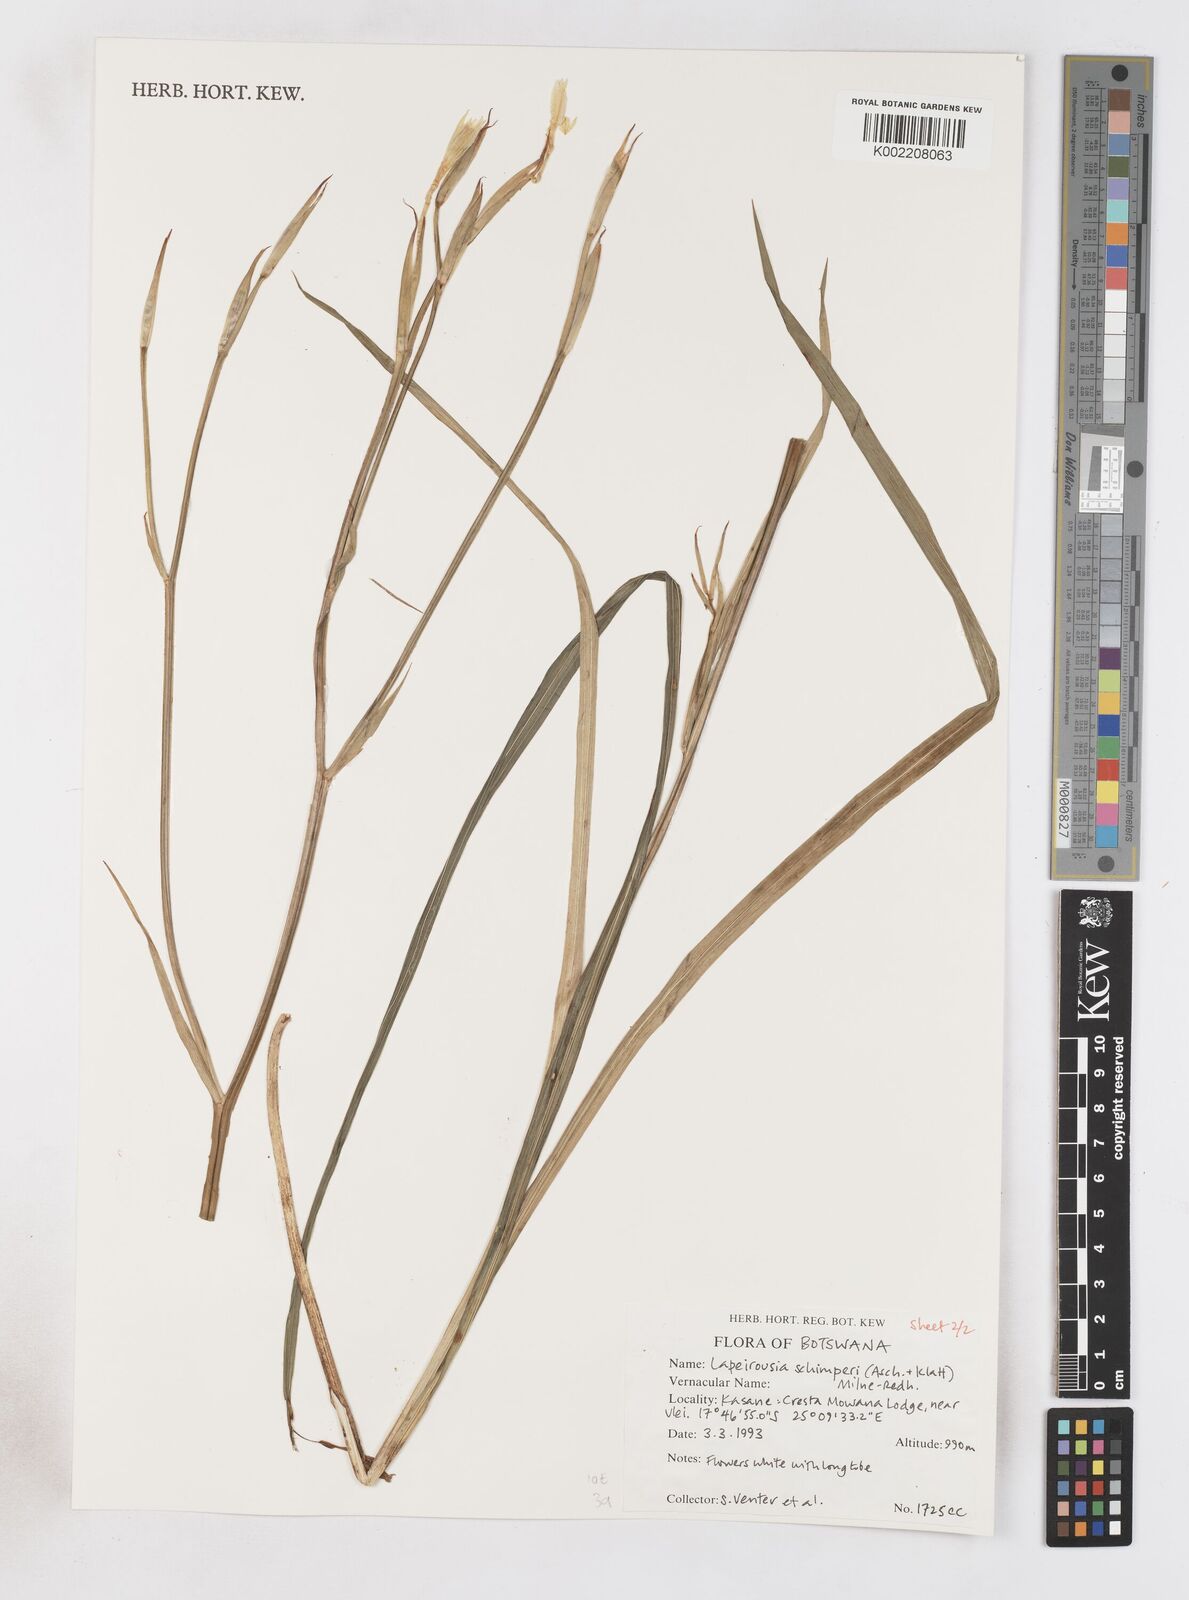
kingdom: Plantae
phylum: Tracheophyta
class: Liliopsida
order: Asparagales
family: Iridaceae
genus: Afrosolen
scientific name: Afrosolen schimperi
